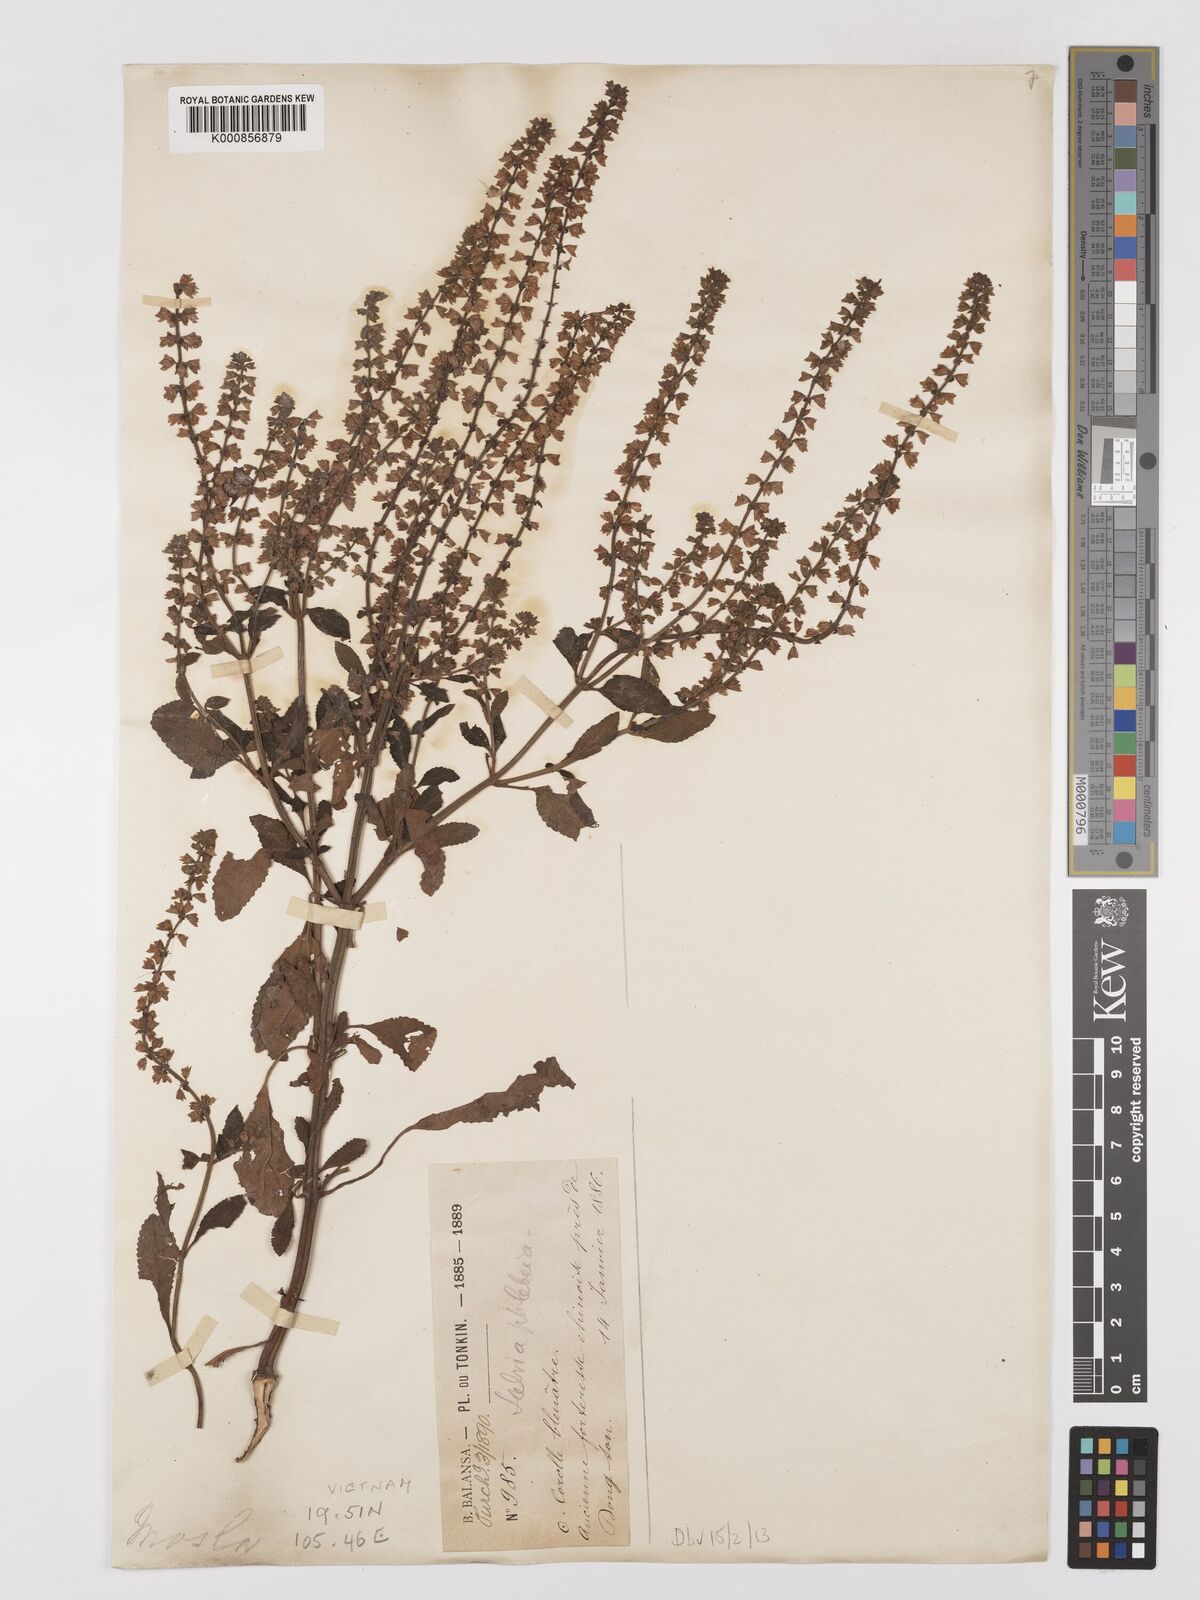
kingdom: Plantae
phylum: Tracheophyta
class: Magnoliopsida
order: Lamiales
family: Lamiaceae
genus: Salvia
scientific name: Salvia plebeia
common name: Australian sage
